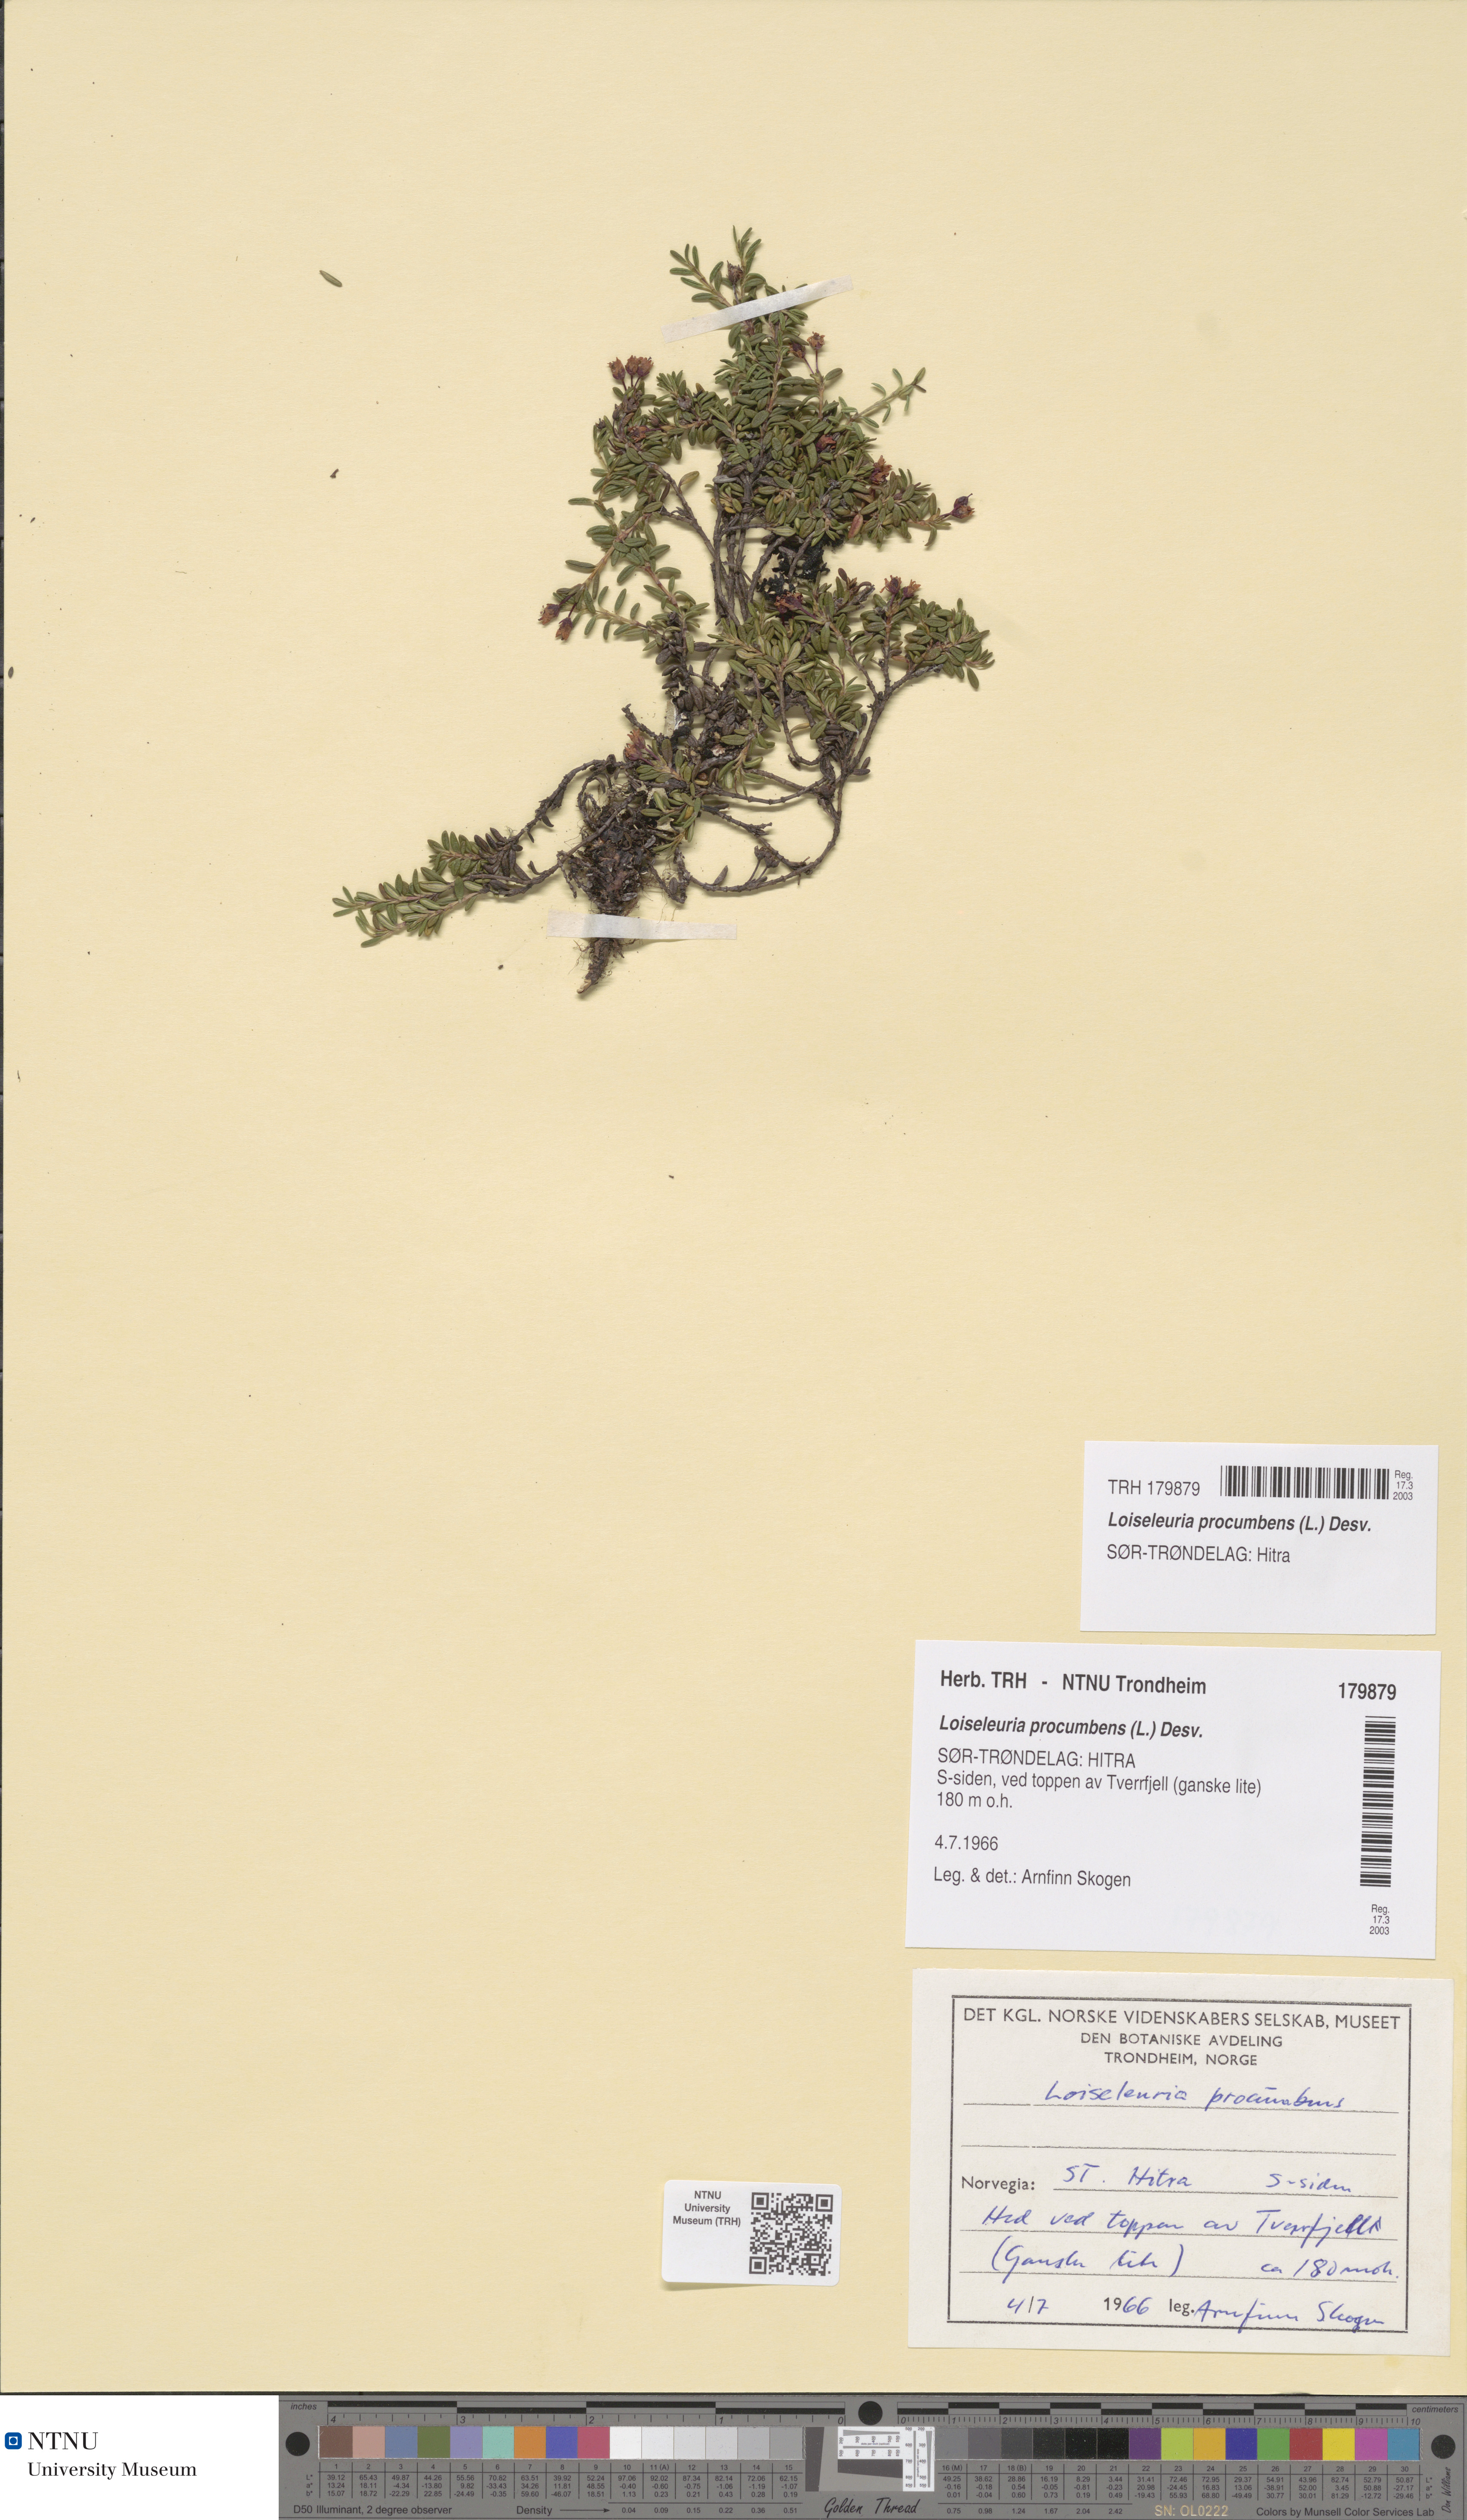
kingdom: Plantae
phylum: Tracheophyta
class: Magnoliopsida
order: Ericales
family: Ericaceae
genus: Kalmia
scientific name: Kalmia procumbens
